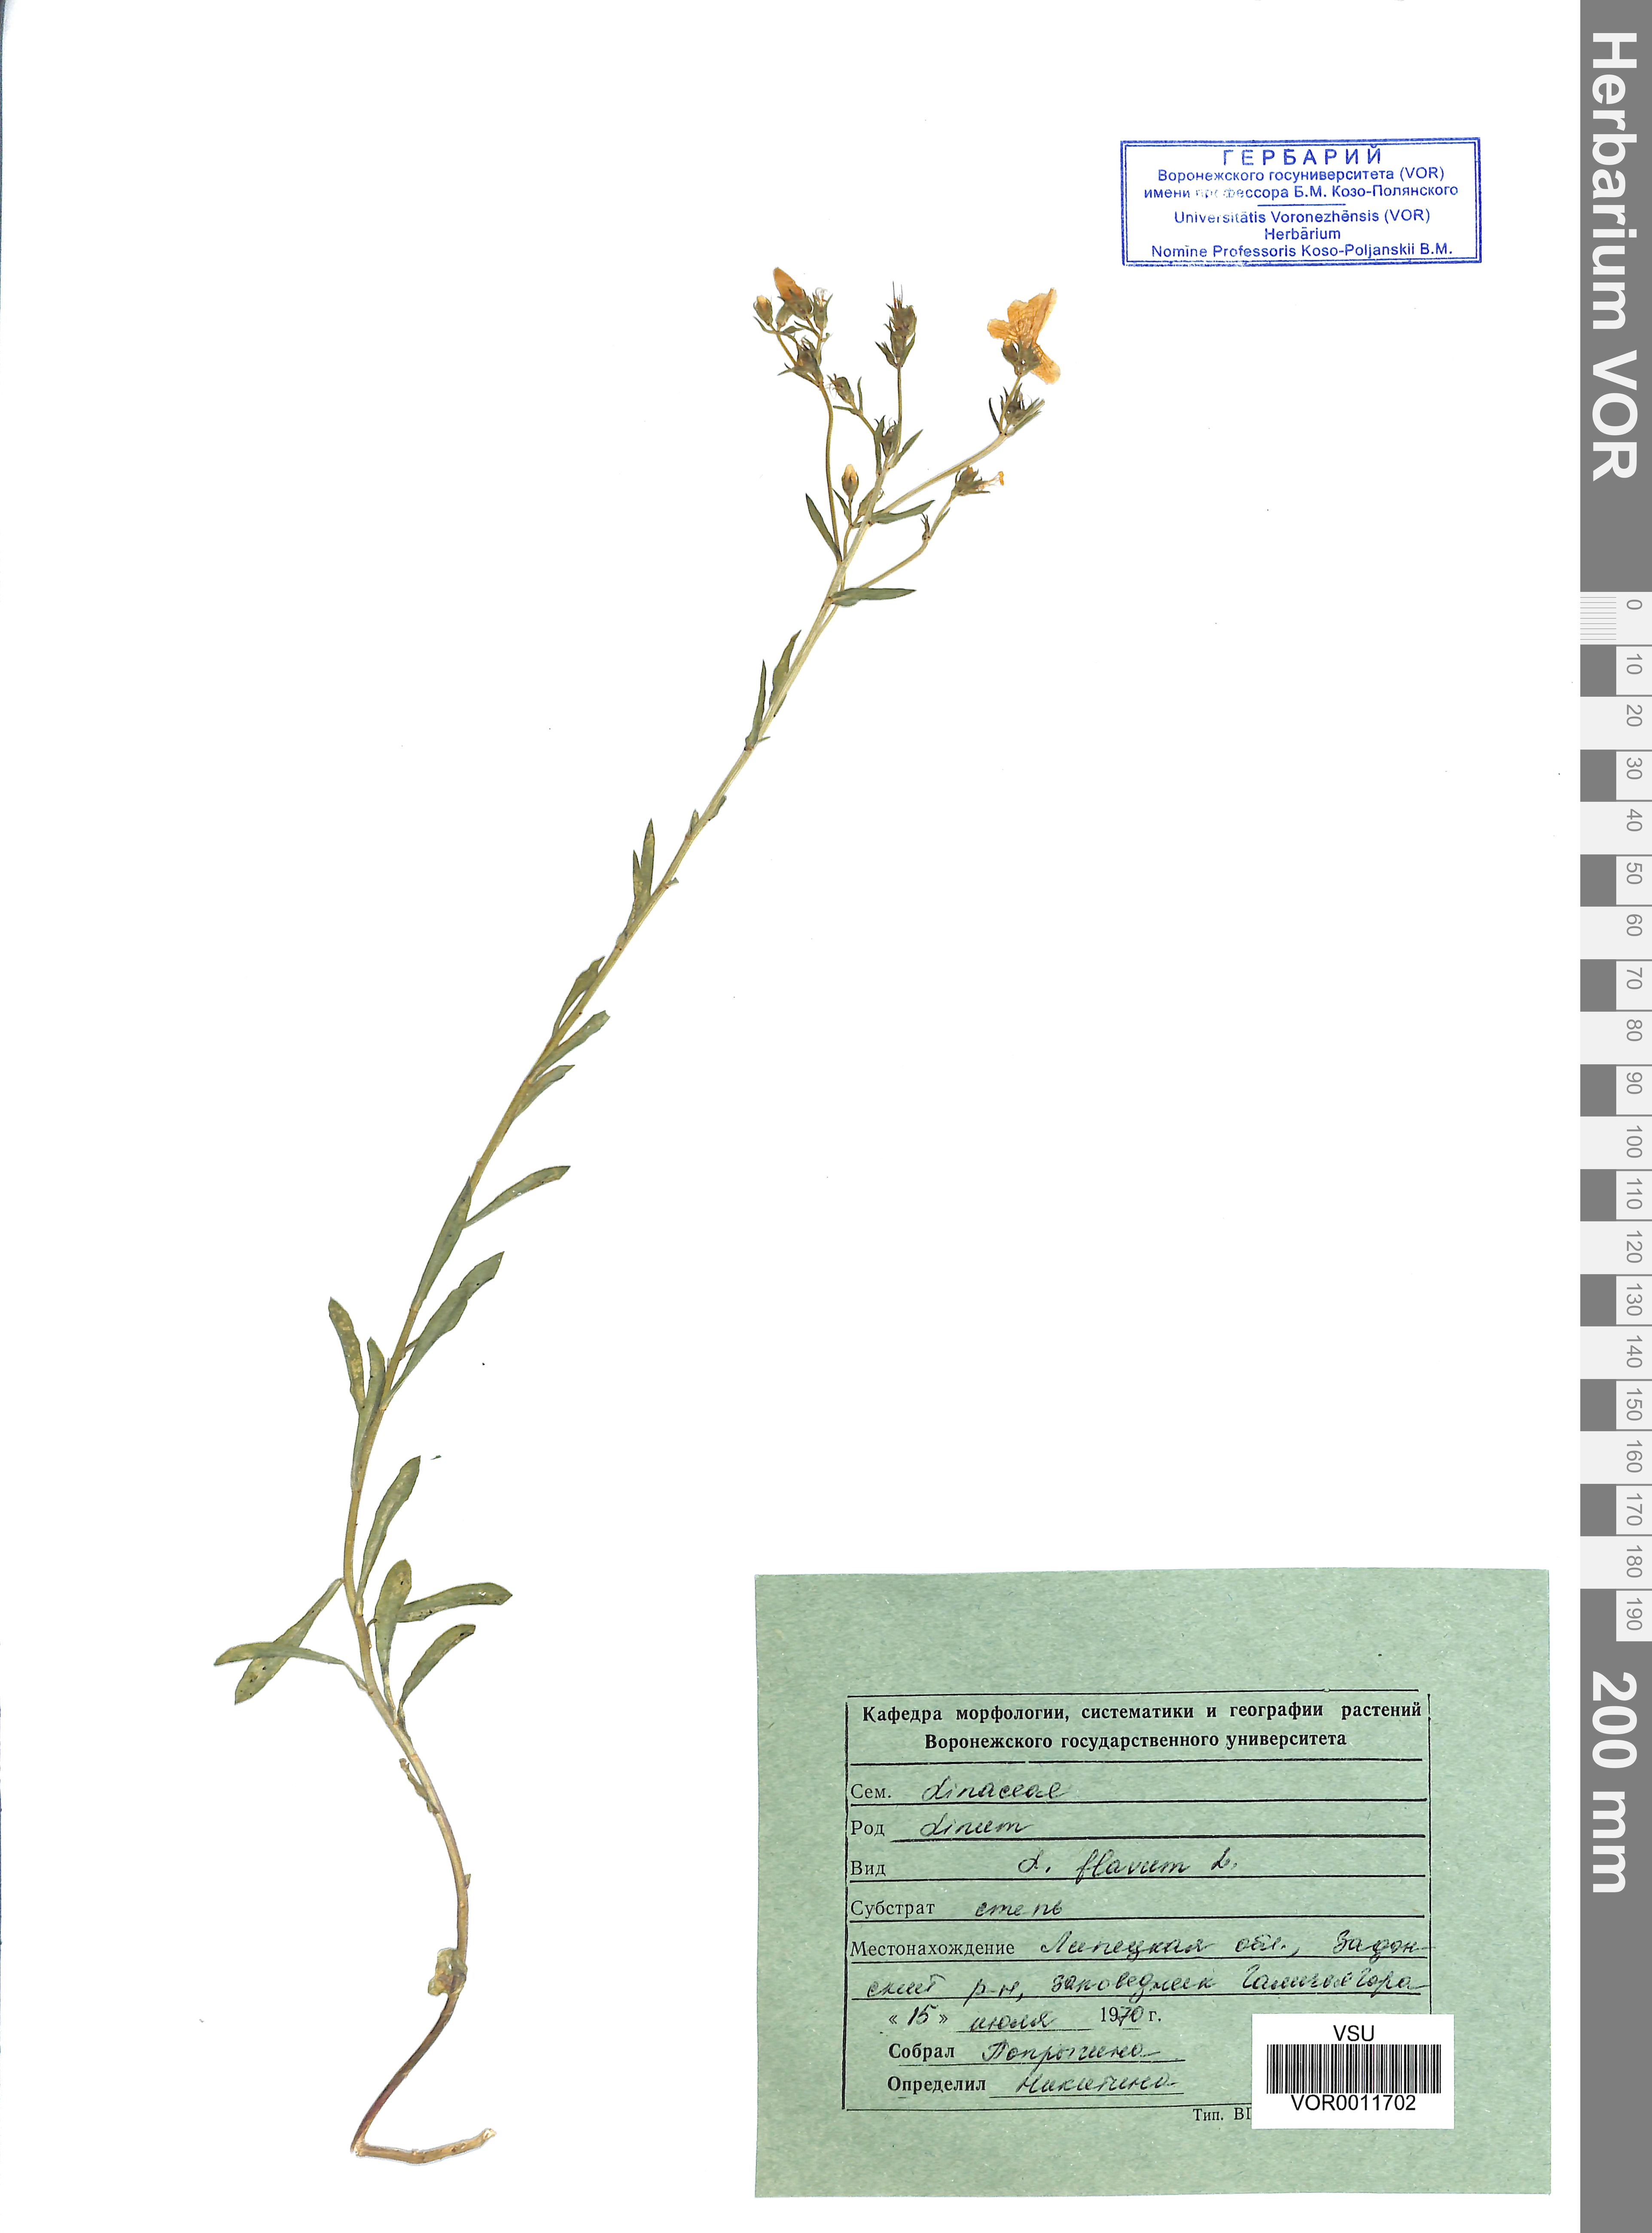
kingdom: Plantae
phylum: Tracheophyta
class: Magnoliopsida
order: Malpighiales
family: Linaceae
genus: Linum
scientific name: Linum flavum
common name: Yellow flax
